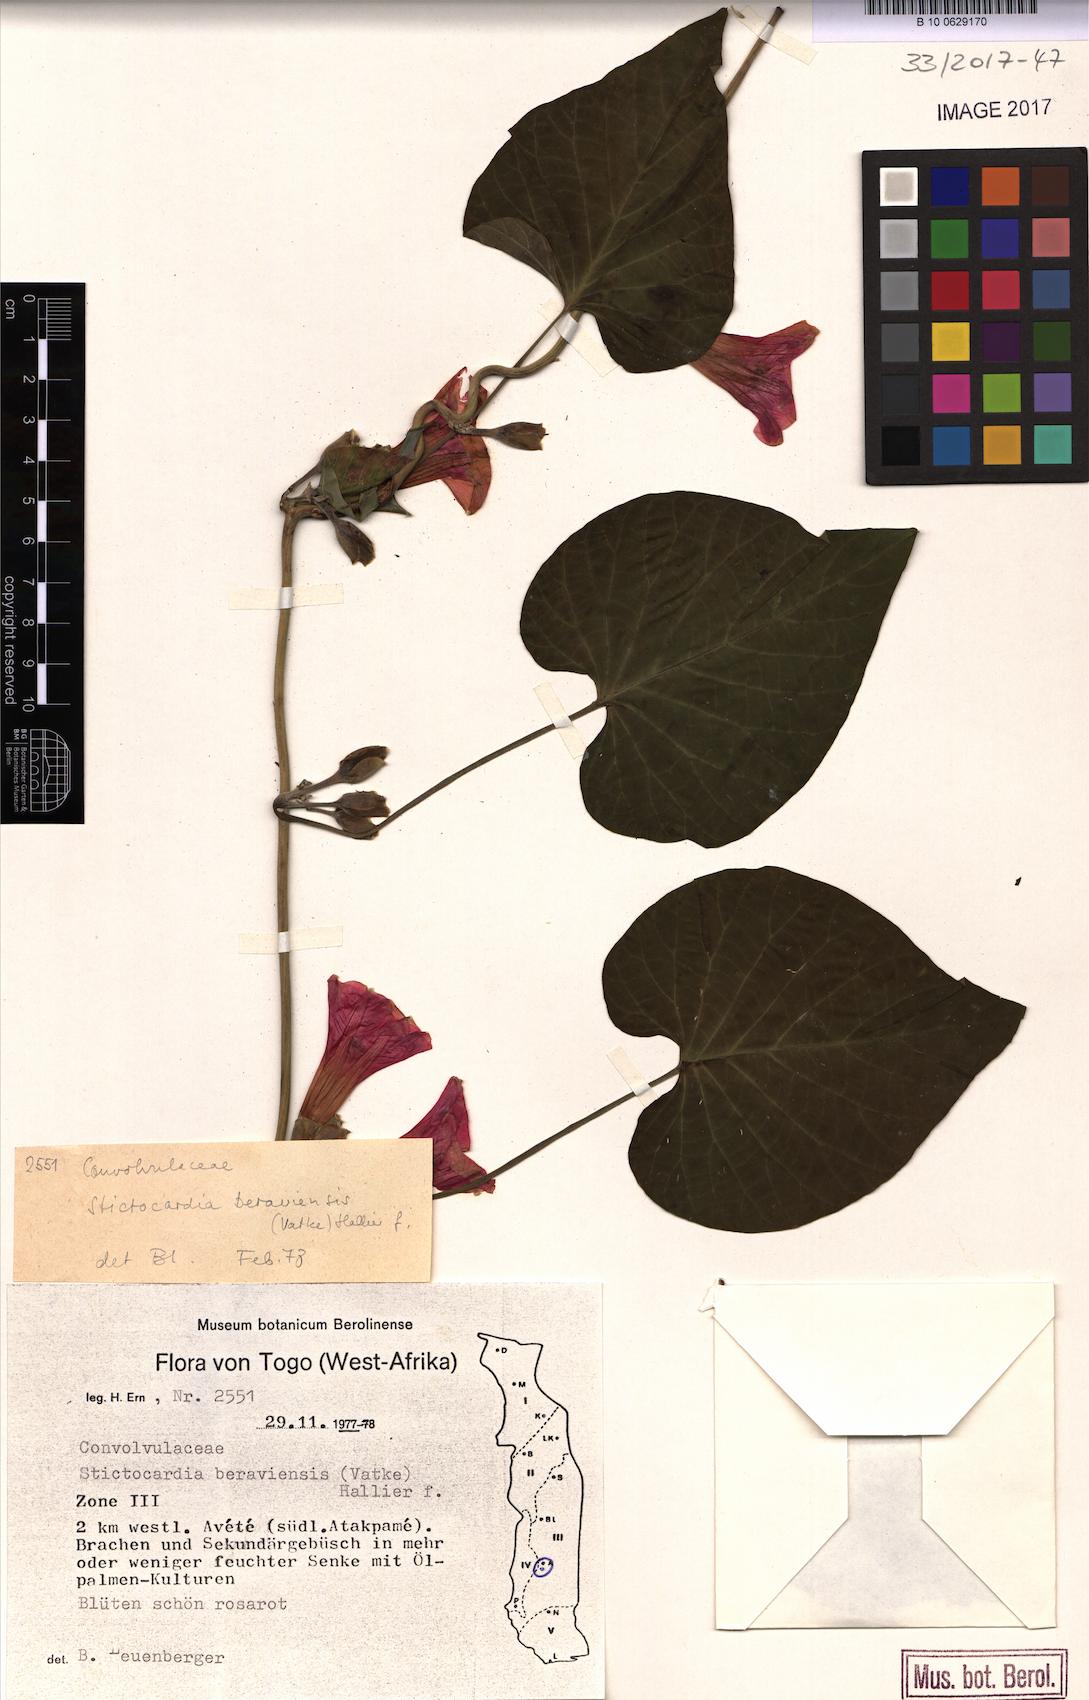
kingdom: Plantae
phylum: Tracheophyta
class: Magnoliopsida
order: Solanales
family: Convolvulaceae
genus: Stictocardia
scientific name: Stictocardia beraviensis
